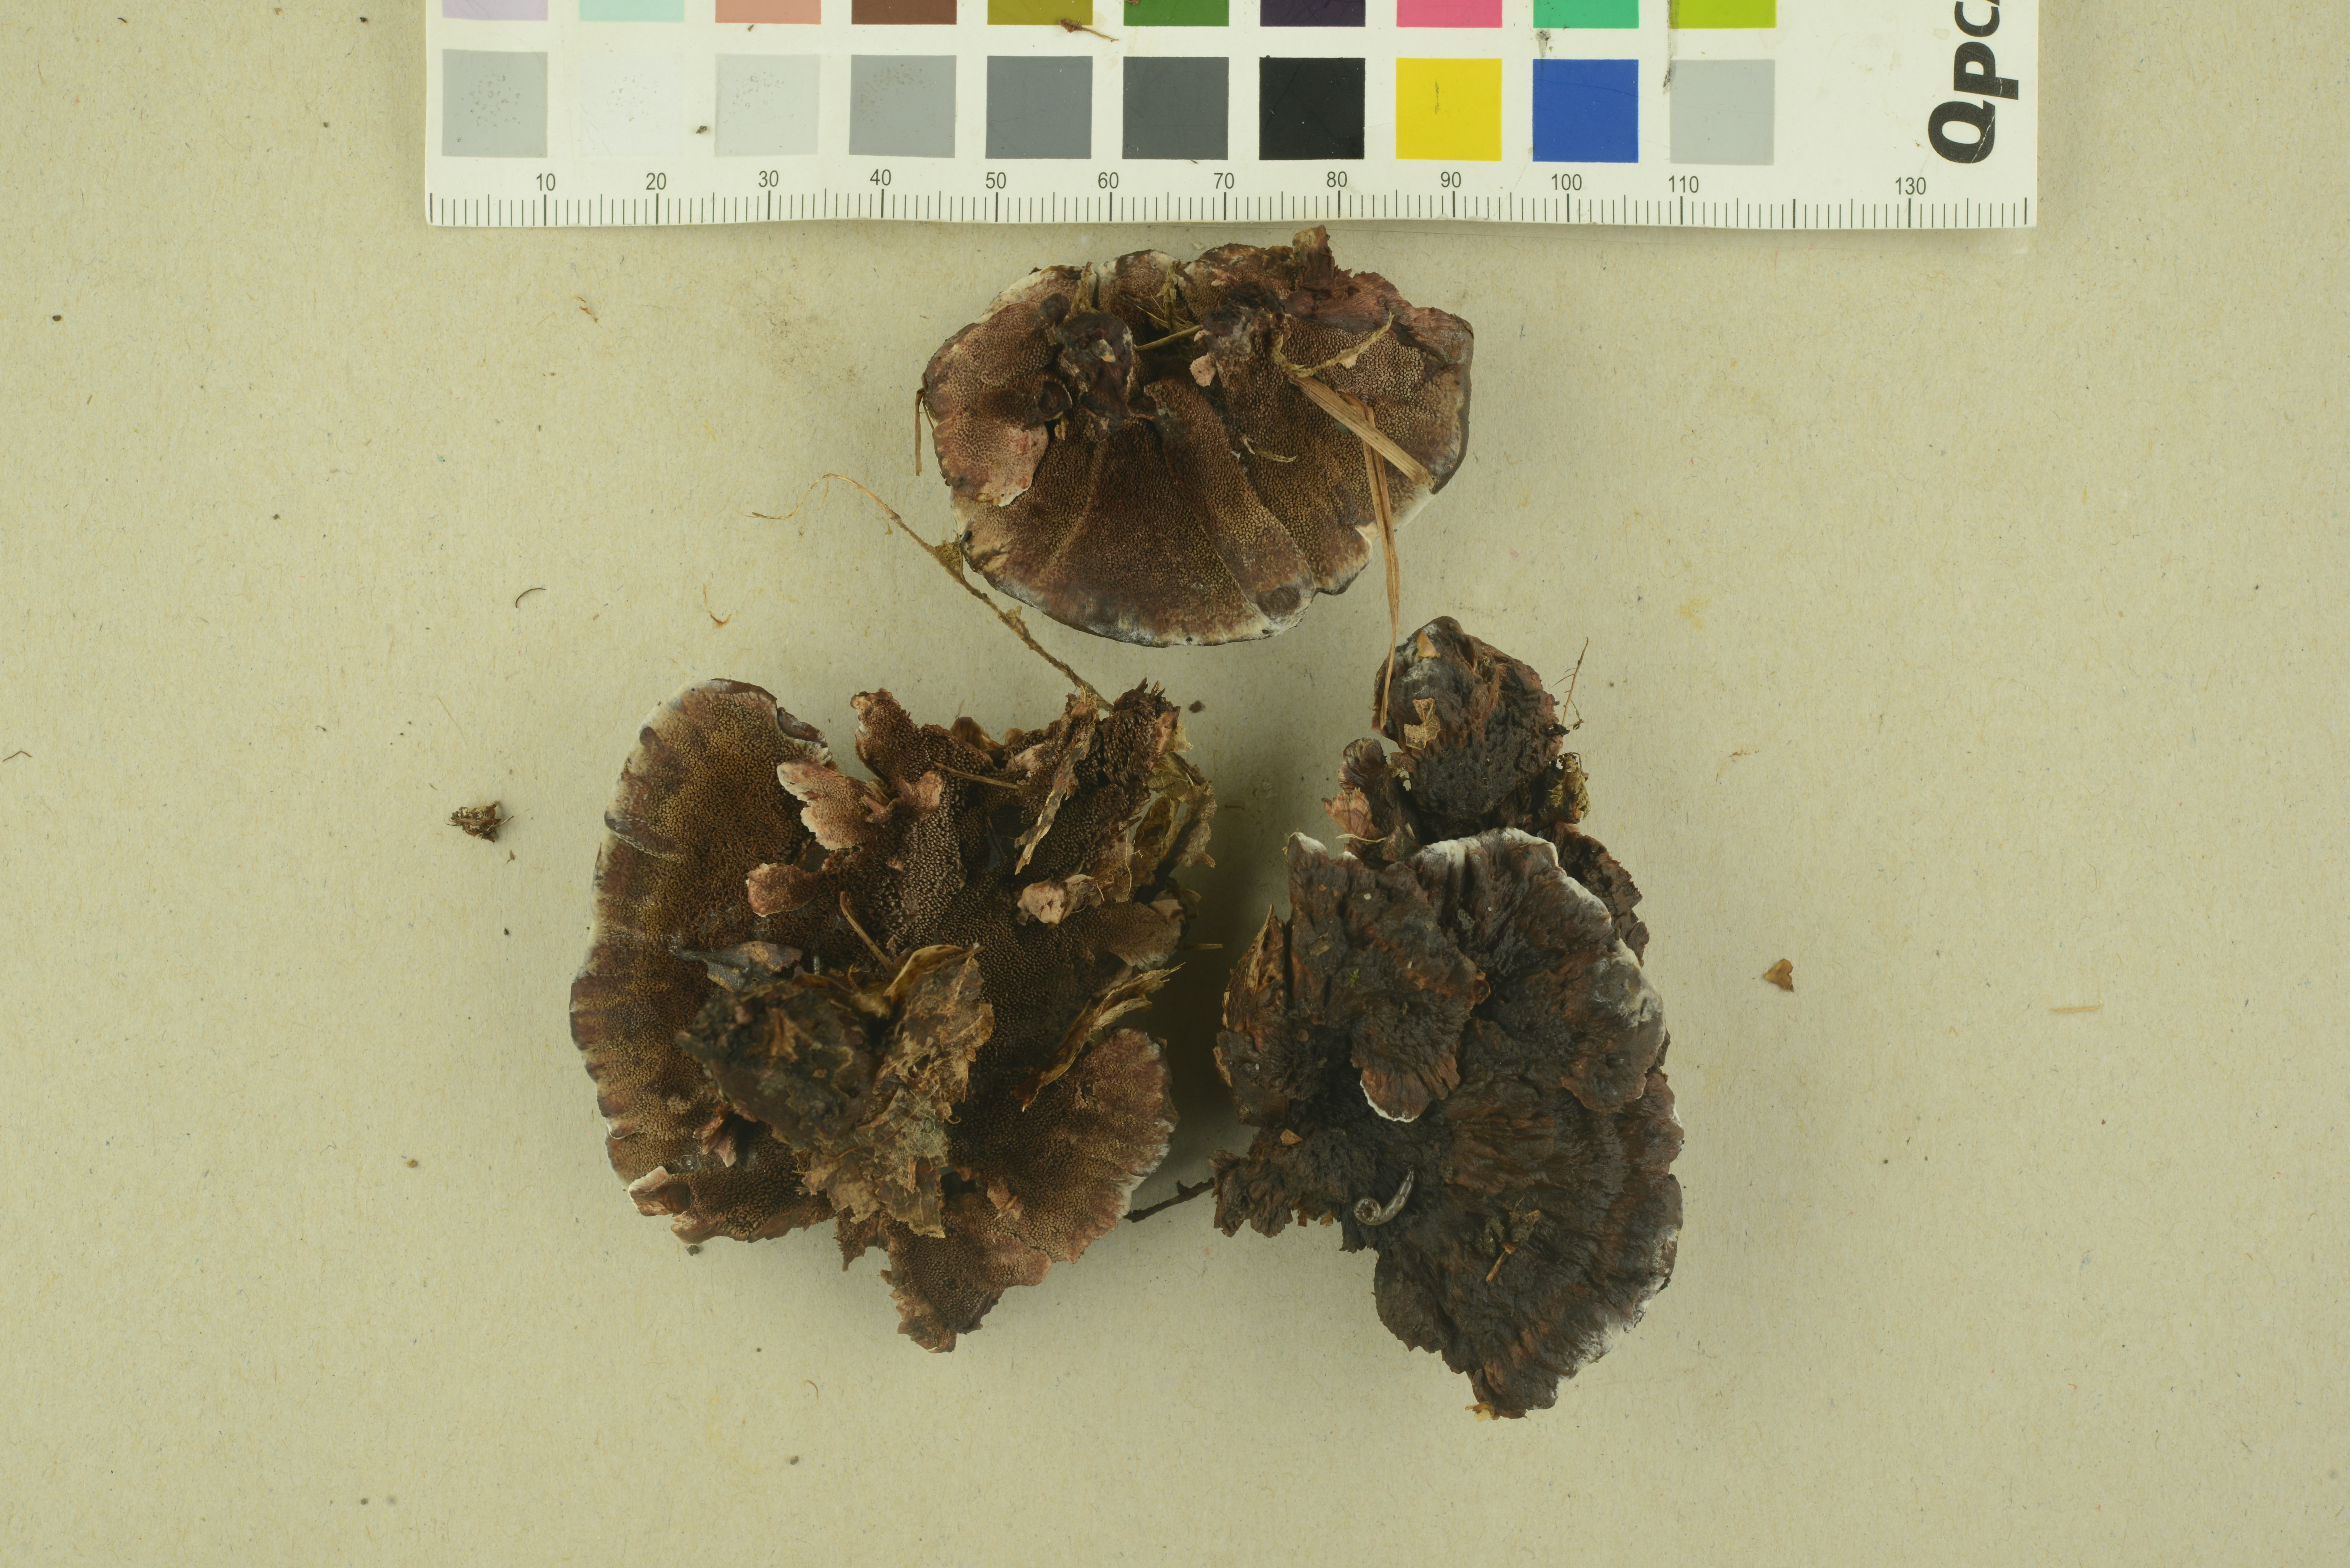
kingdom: Fungi
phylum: Basidiomycota
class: Agaricomycetes
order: Thelephorales
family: Bankeraceae
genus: Hydnellum
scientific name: Hydnellum concrescens
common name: Zoned tooth
